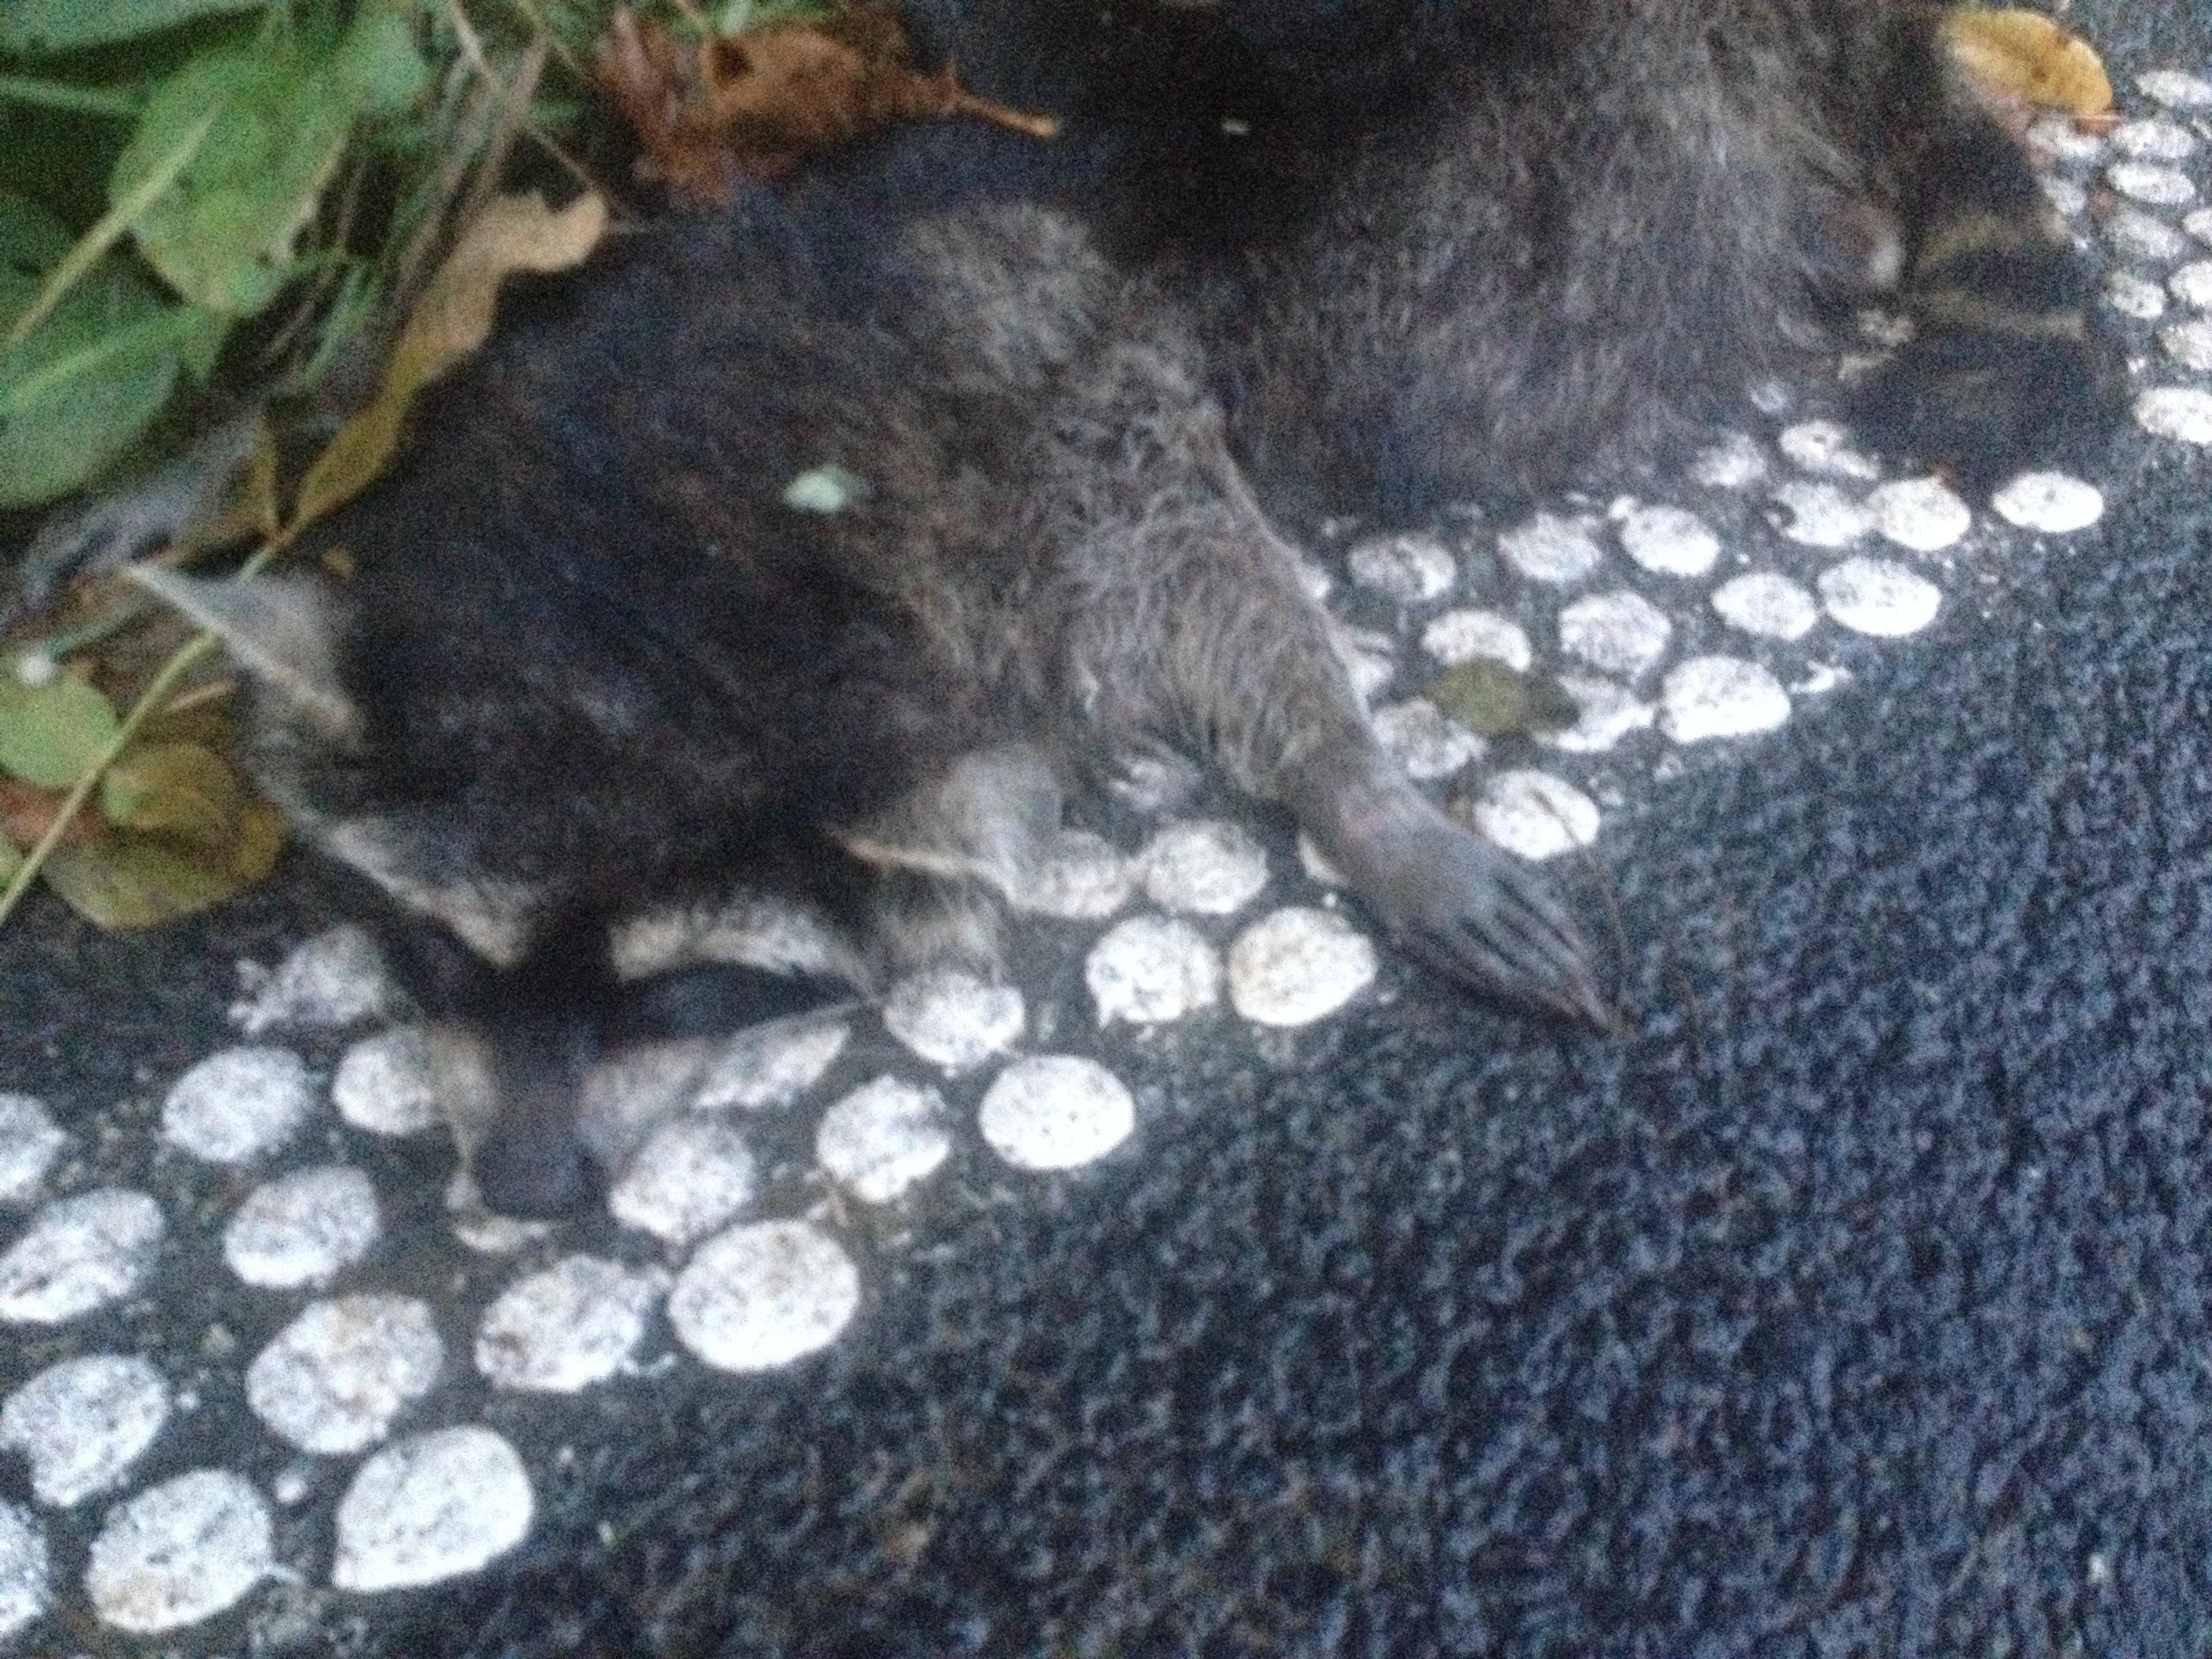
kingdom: Animalia
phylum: Chordata
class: Mammalia
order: Carnivora
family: Procyonidae
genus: Procyon
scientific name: Procyon lotor
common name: Raccoon
